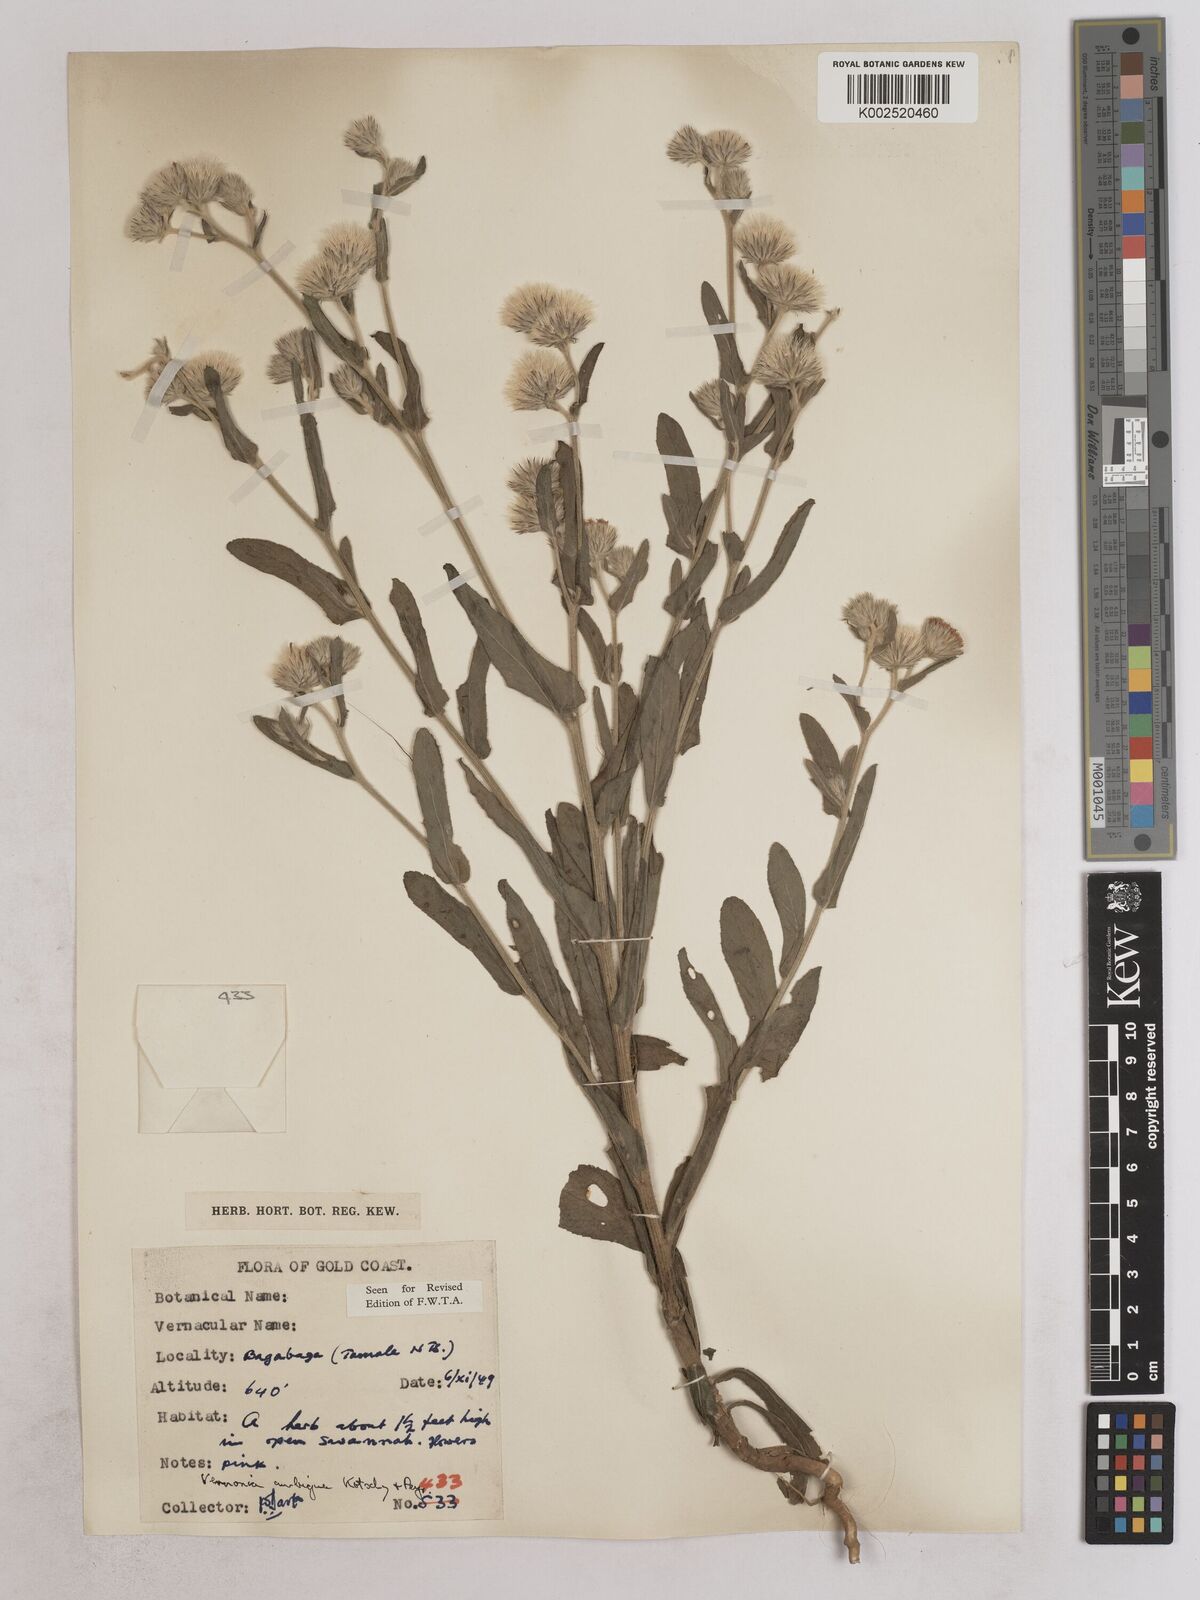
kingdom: Plantae
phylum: Tracheophyta
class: Magnoliopsida
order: Asterales
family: Asteraceae
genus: Vernoniastrum
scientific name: Vernoniastrum ambiguum
